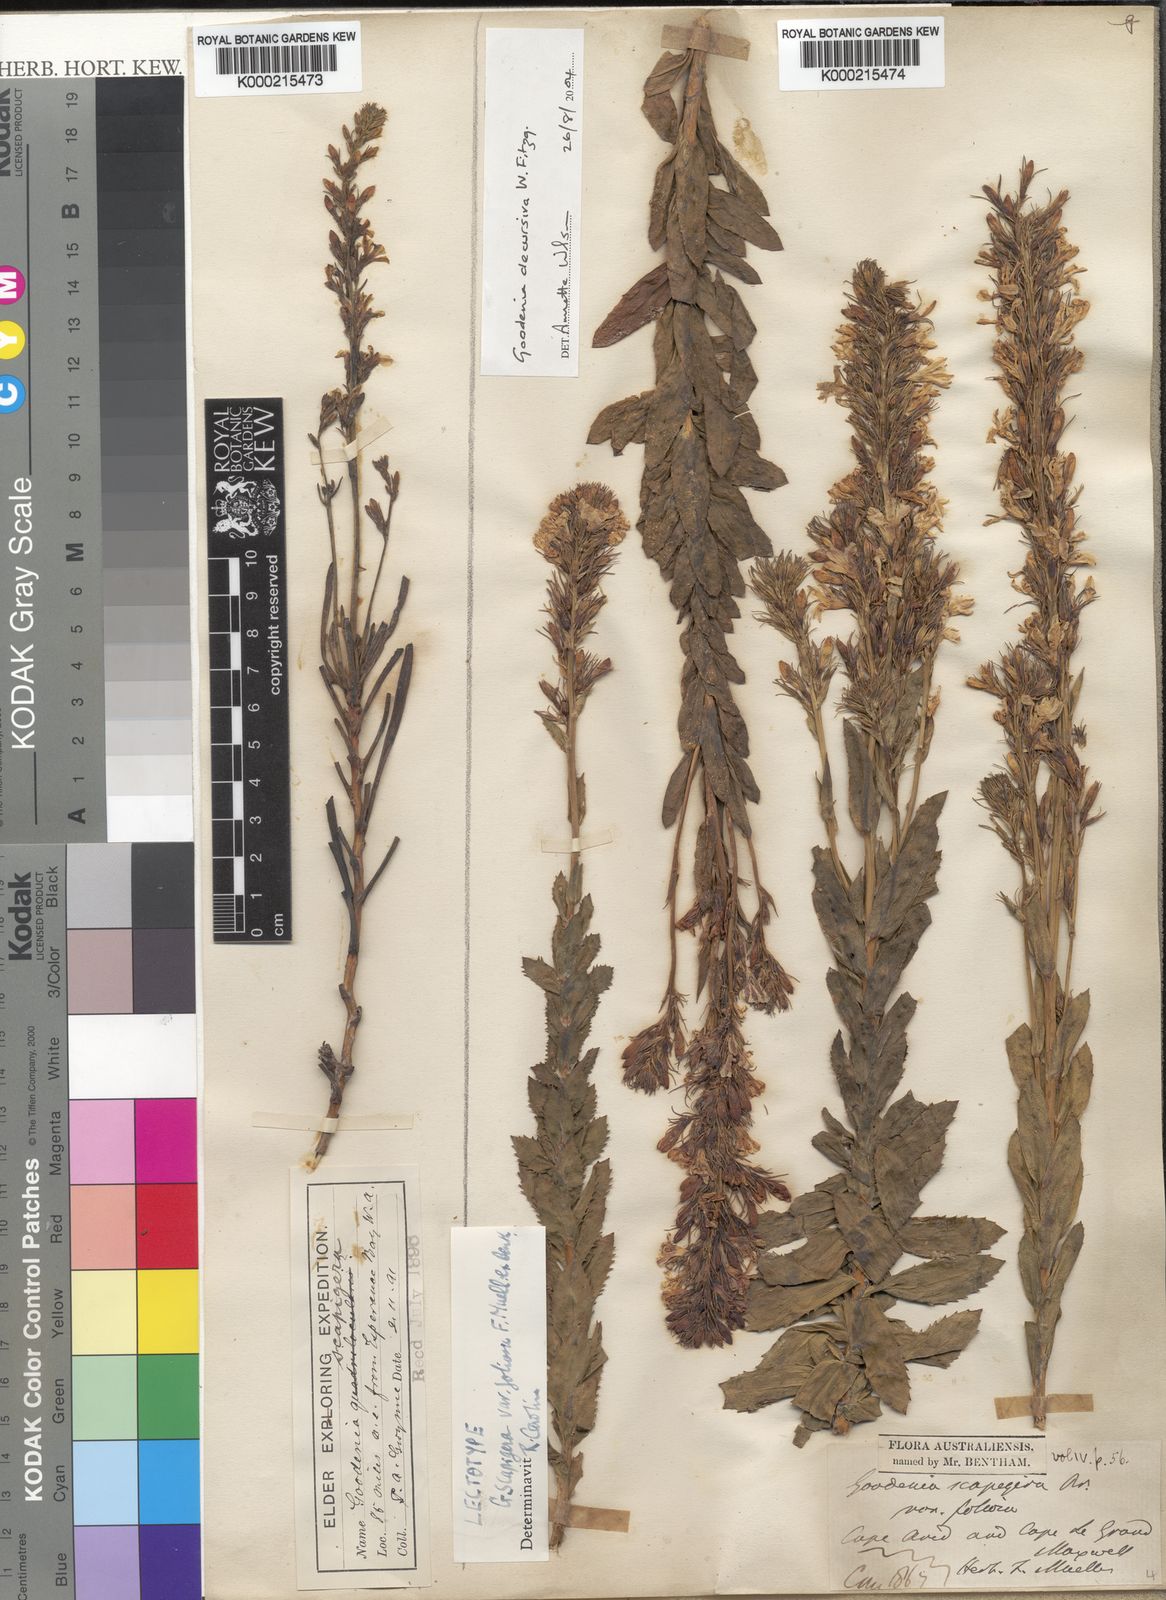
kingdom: Plantae
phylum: Tracheophyta
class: Magnoliopsida
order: Asterales
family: Goodeniaceae
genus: Goodenia
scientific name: Goodenia decursiva
